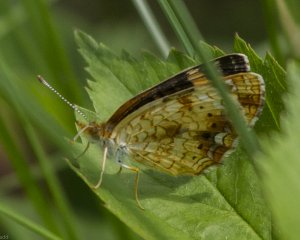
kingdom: Animalia
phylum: Arthropoda
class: Insecta
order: Lepidoptera
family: Nymphalidae
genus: Phyciodes
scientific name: Phyciodes tharos
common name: Northern Crescent
